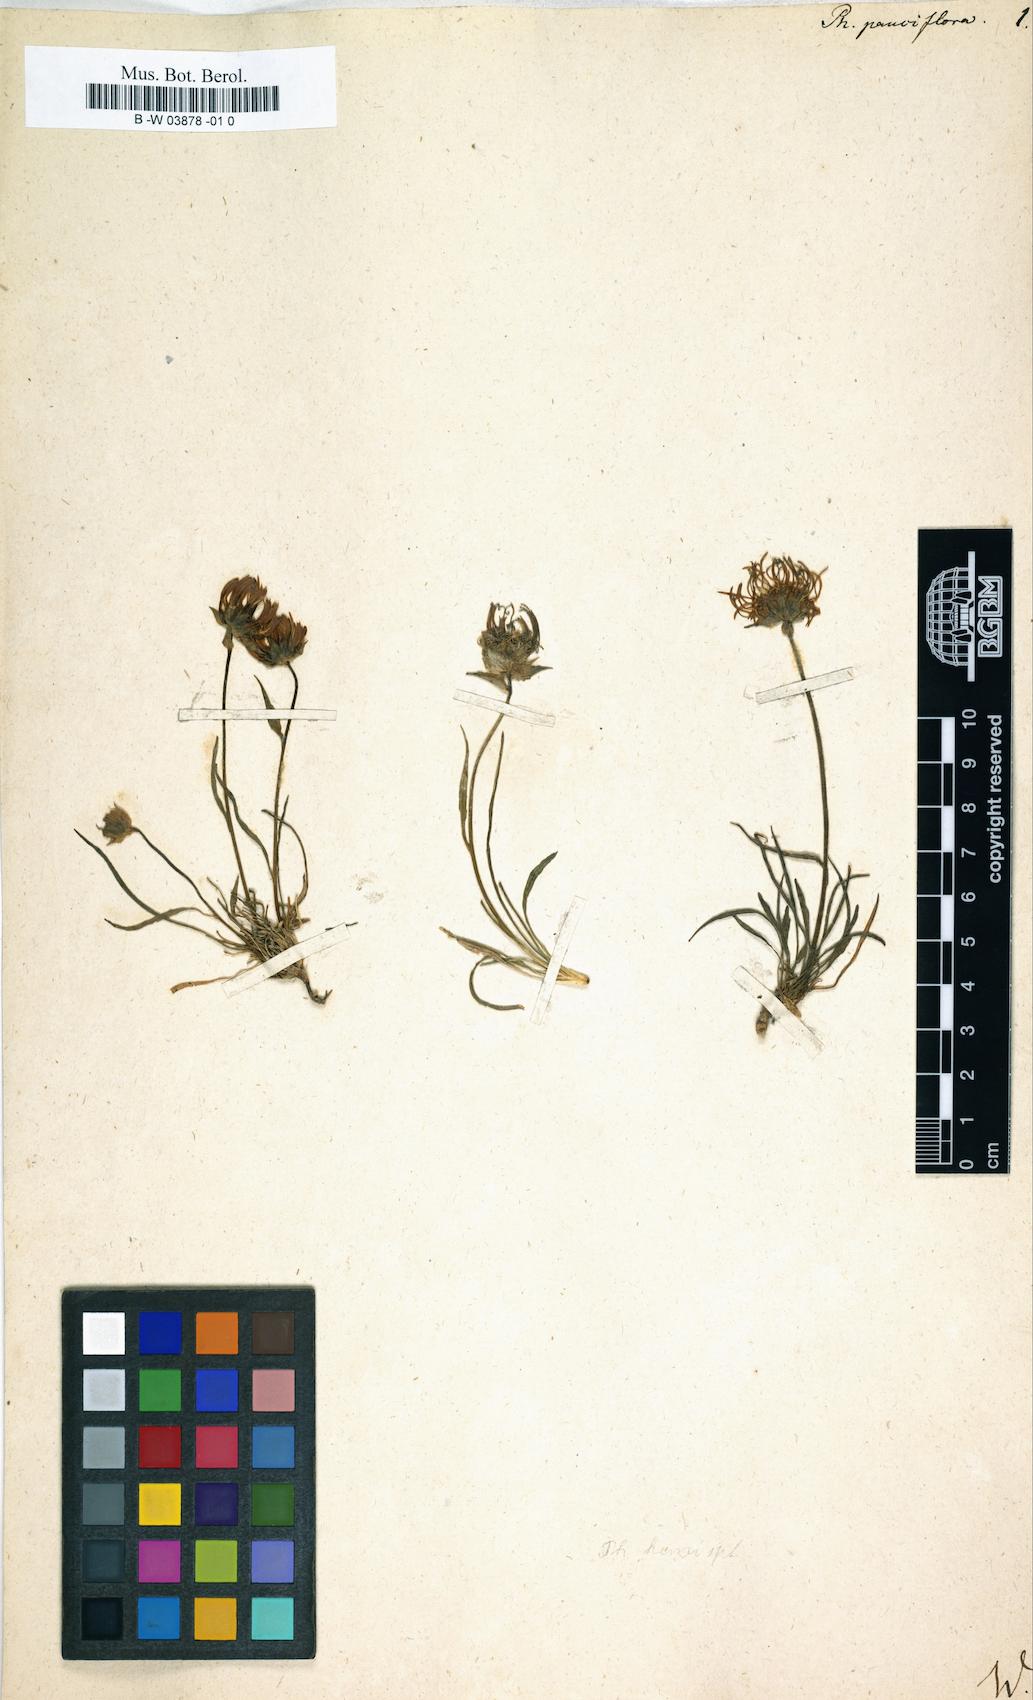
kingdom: Plantae
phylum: Tracheophyta
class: Magnoliopsida
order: Asterales
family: Campanulaceae
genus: Phyteuma
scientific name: Phyteuma globulariifolium
